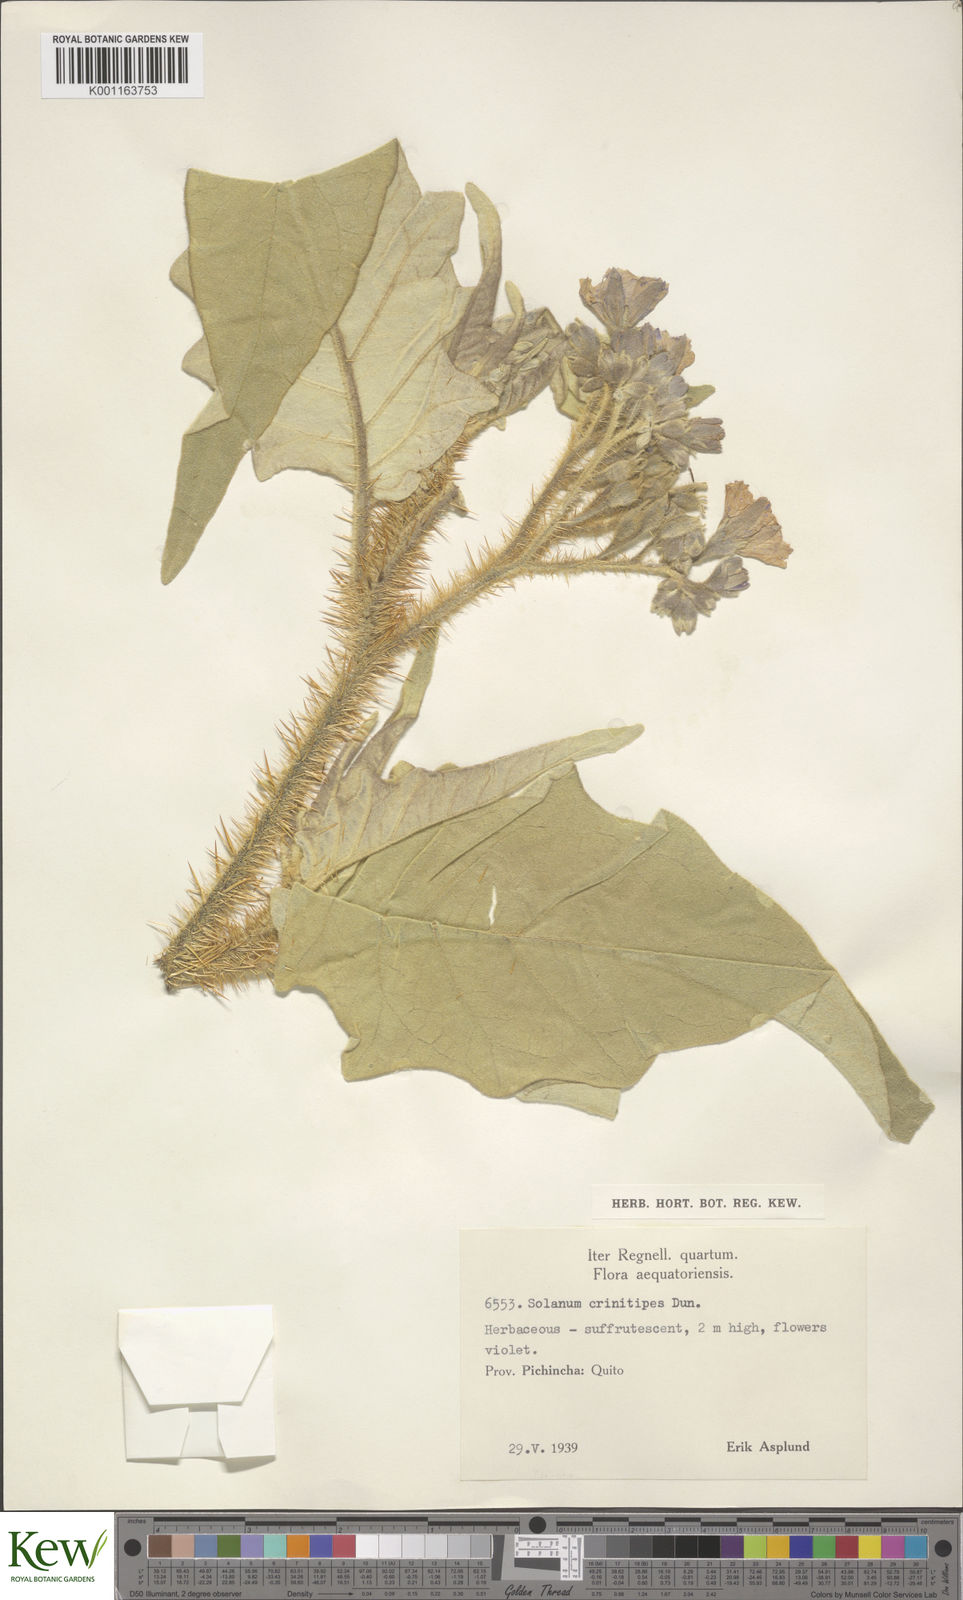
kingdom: Plantae
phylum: Tracheophyta
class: Magnoliopsida
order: Solanales
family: Solanaceae
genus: Solanum
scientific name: Solanum crinitipes
